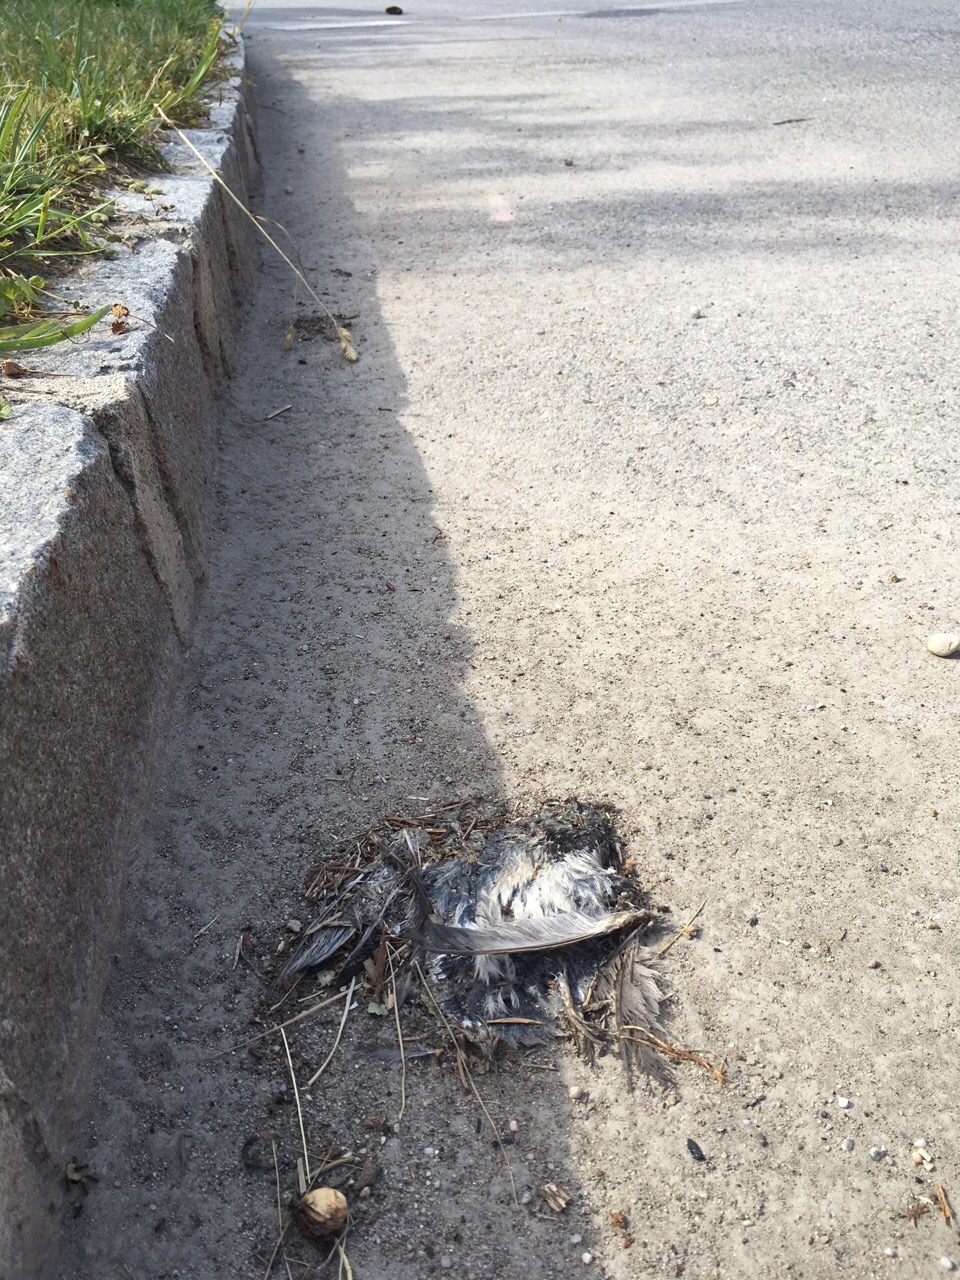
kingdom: Animalia
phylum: Chordata
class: Aves
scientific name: Aves
